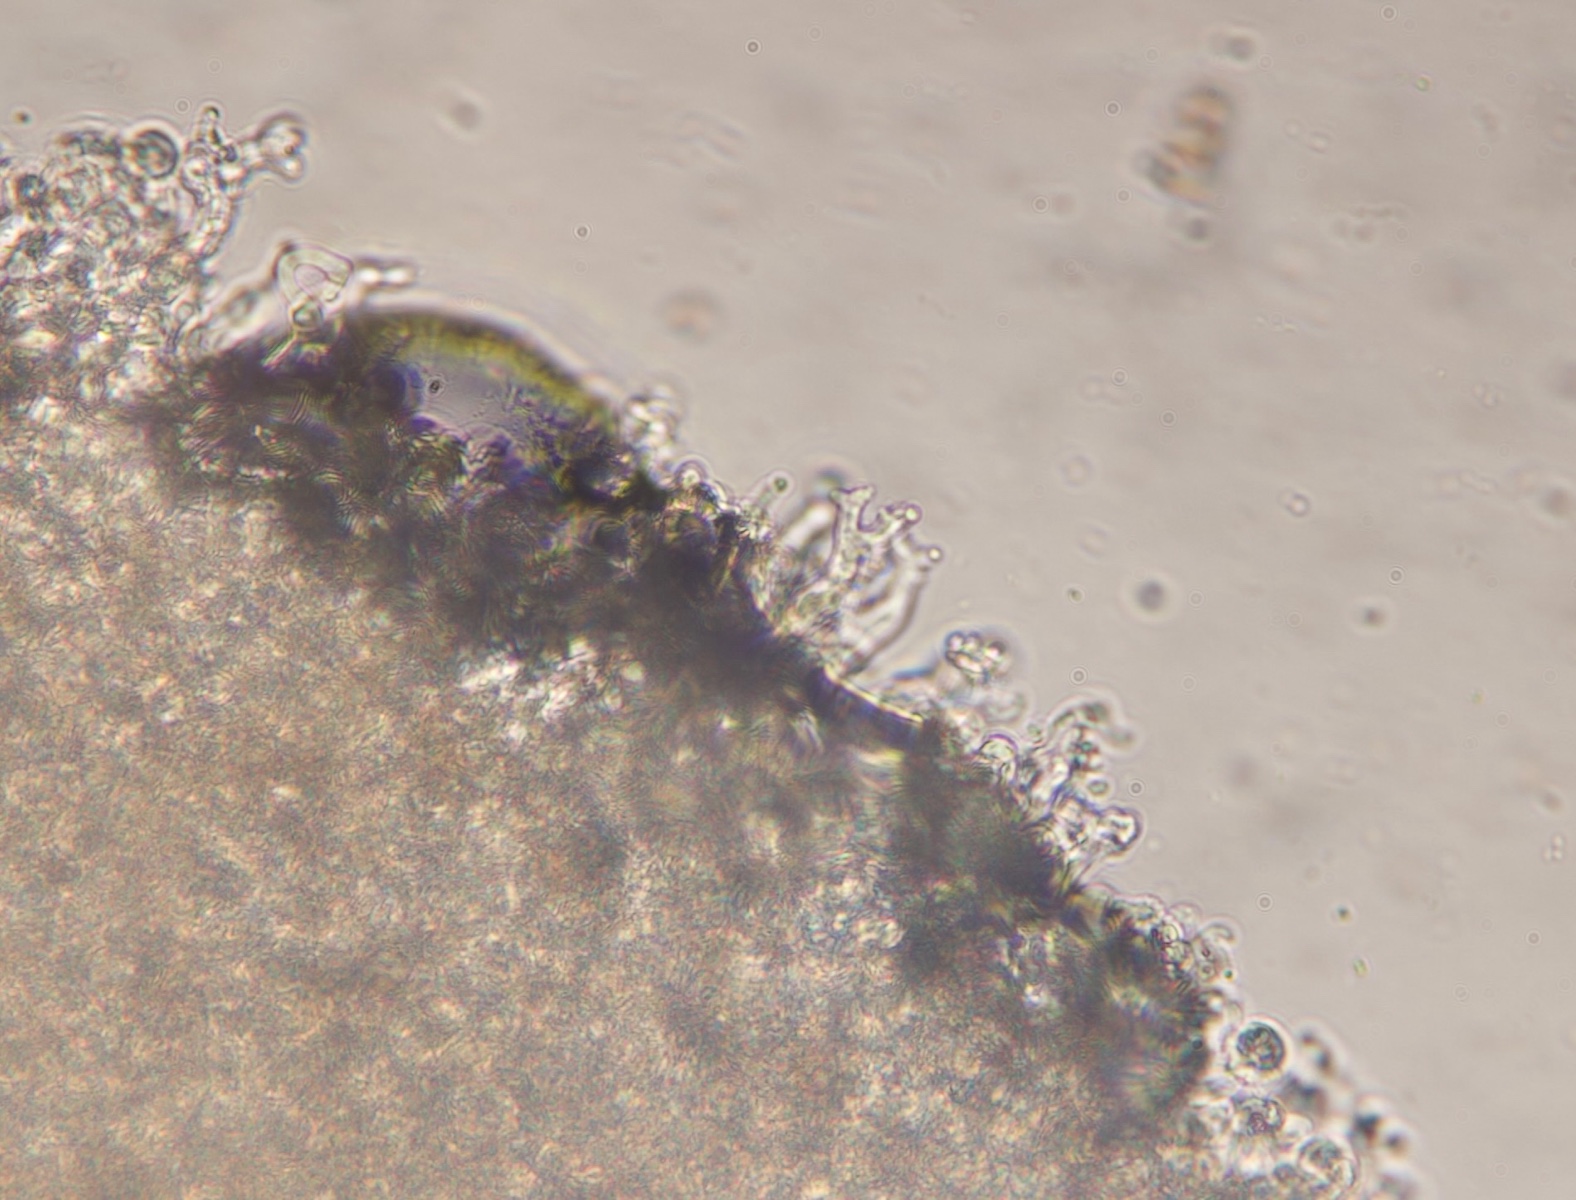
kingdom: Fungi
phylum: Basidiomycota
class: Agaricomycetes
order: Agaricales
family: Crepidotaceae
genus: Crepidotus
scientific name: Crepidotus cesatii
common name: almindelig muslingesvamp
